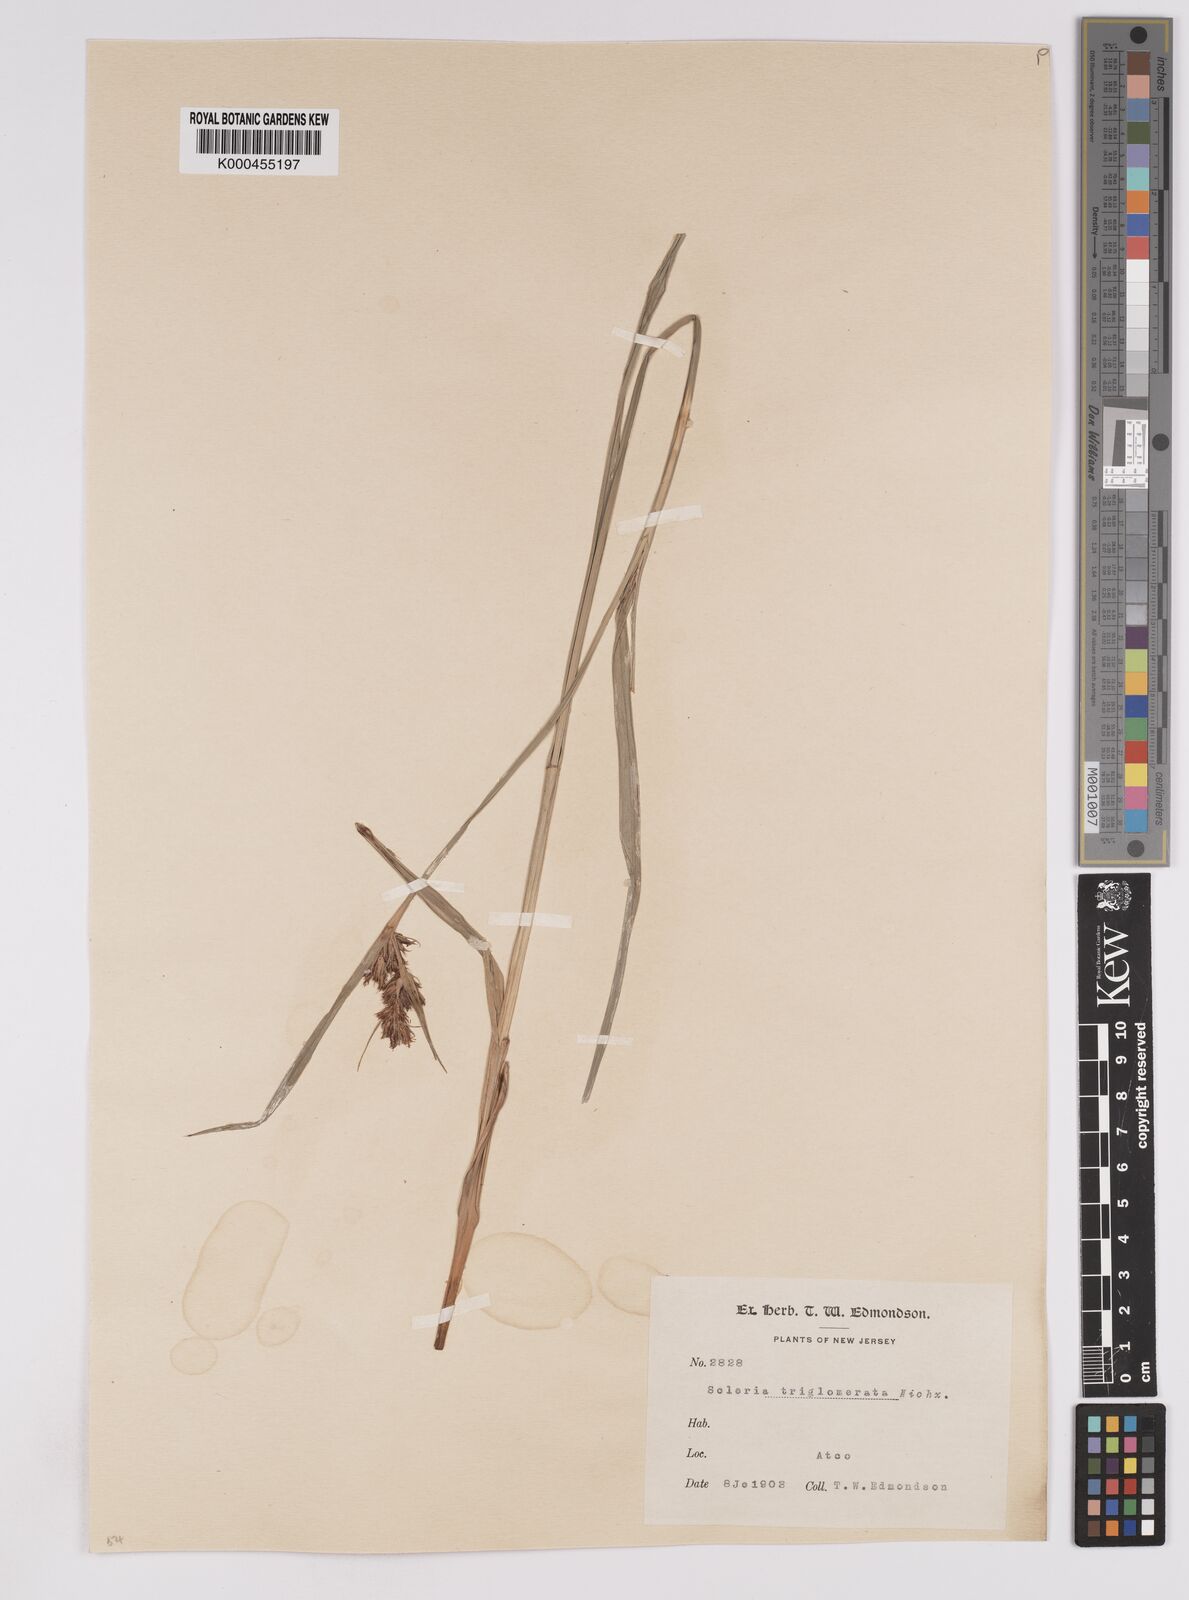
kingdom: Plantae
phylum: Tracheophyta
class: Liliopsida
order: Poales
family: Cyperaceae
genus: Scleria
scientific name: Scleria triglomerata
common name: Whip nutrush
